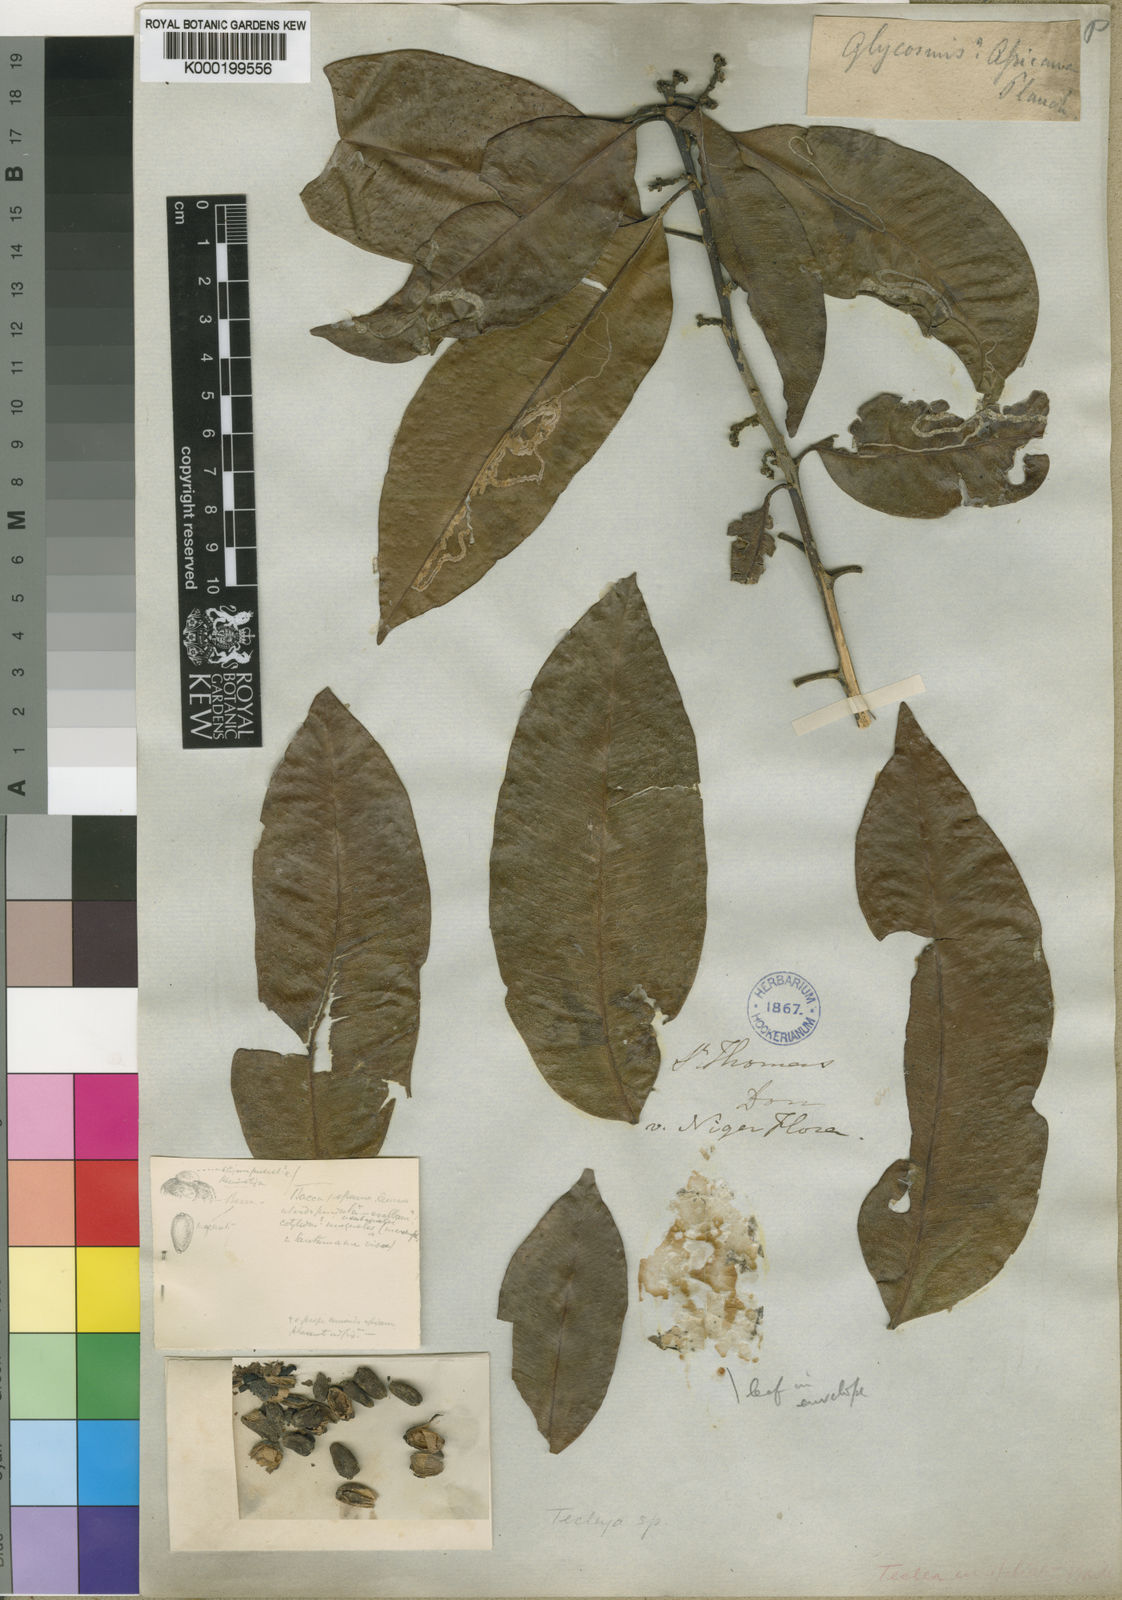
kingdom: Plantae
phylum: Tracheophyta
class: Magnoliopsida
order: Sapindales
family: Rutaceae
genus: Glycosmis
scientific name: Glycosmis
